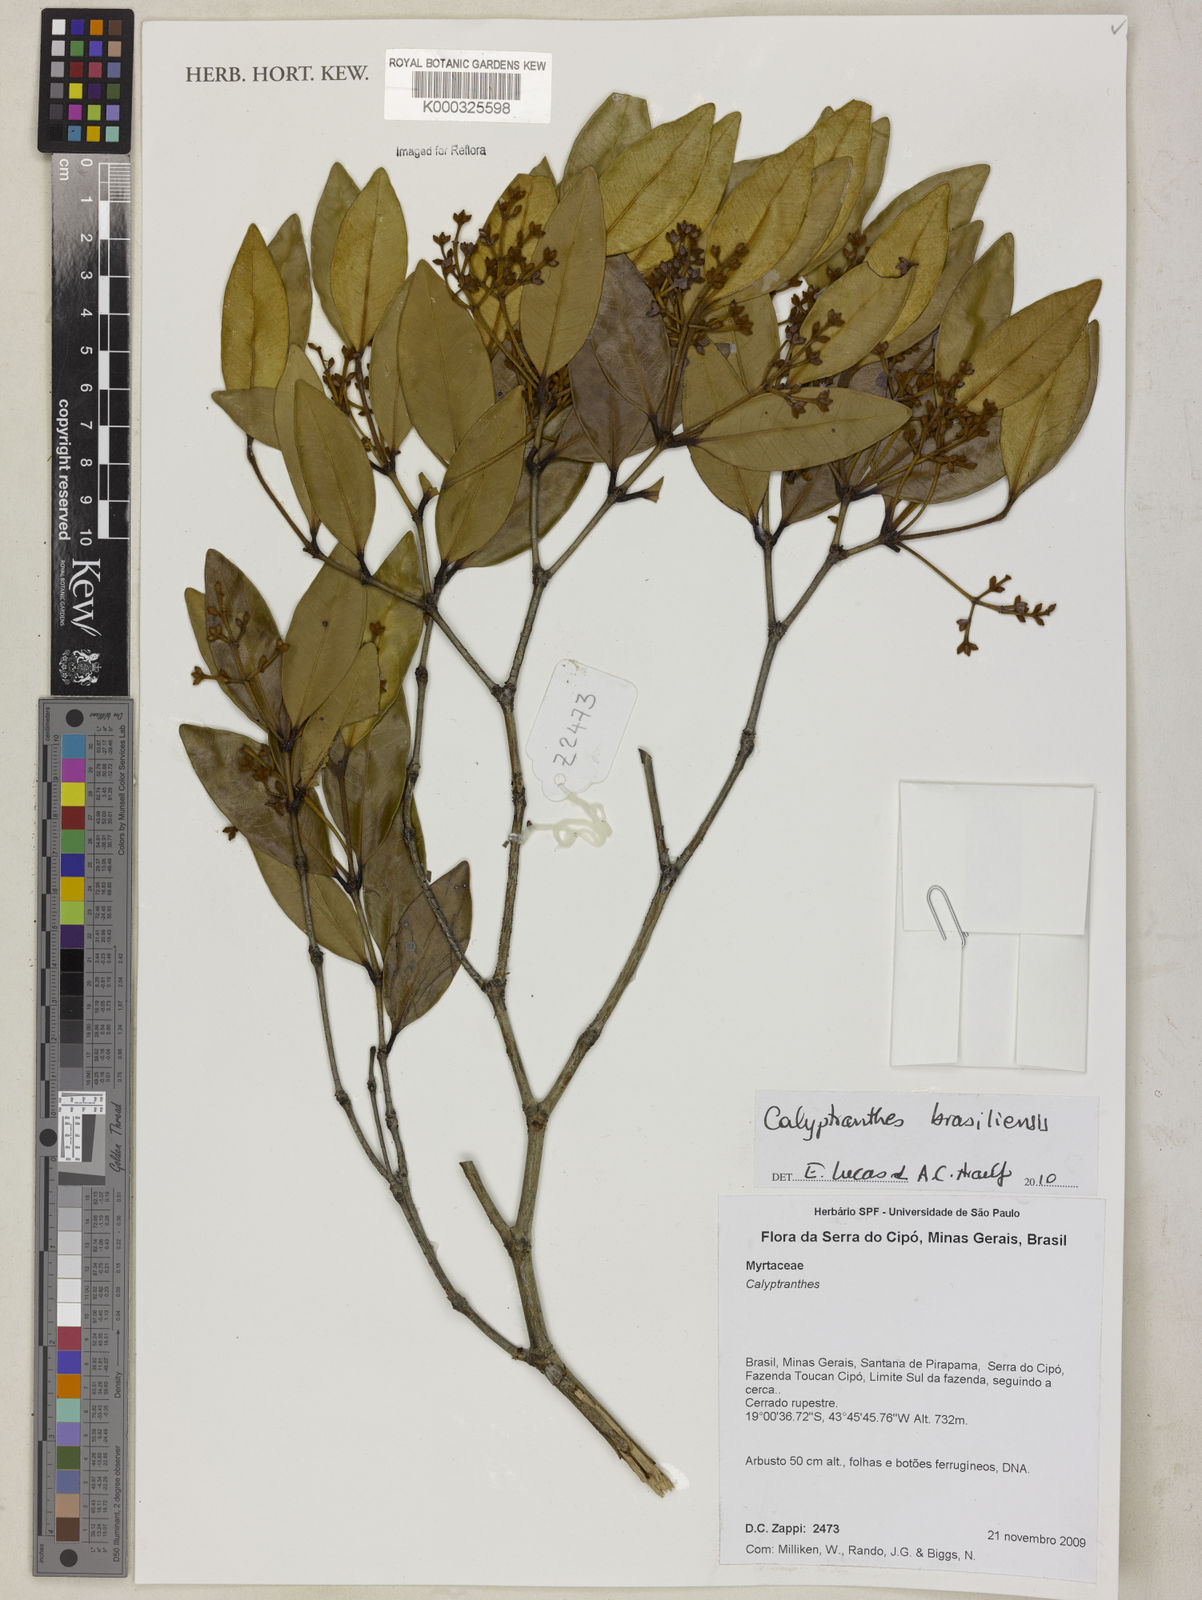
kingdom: Plantae
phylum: Tracheophyta
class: Magnoliopsida
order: Myrtales
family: Myrtaceae
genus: Myrcia
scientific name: Myrcia neobrasiliensis
